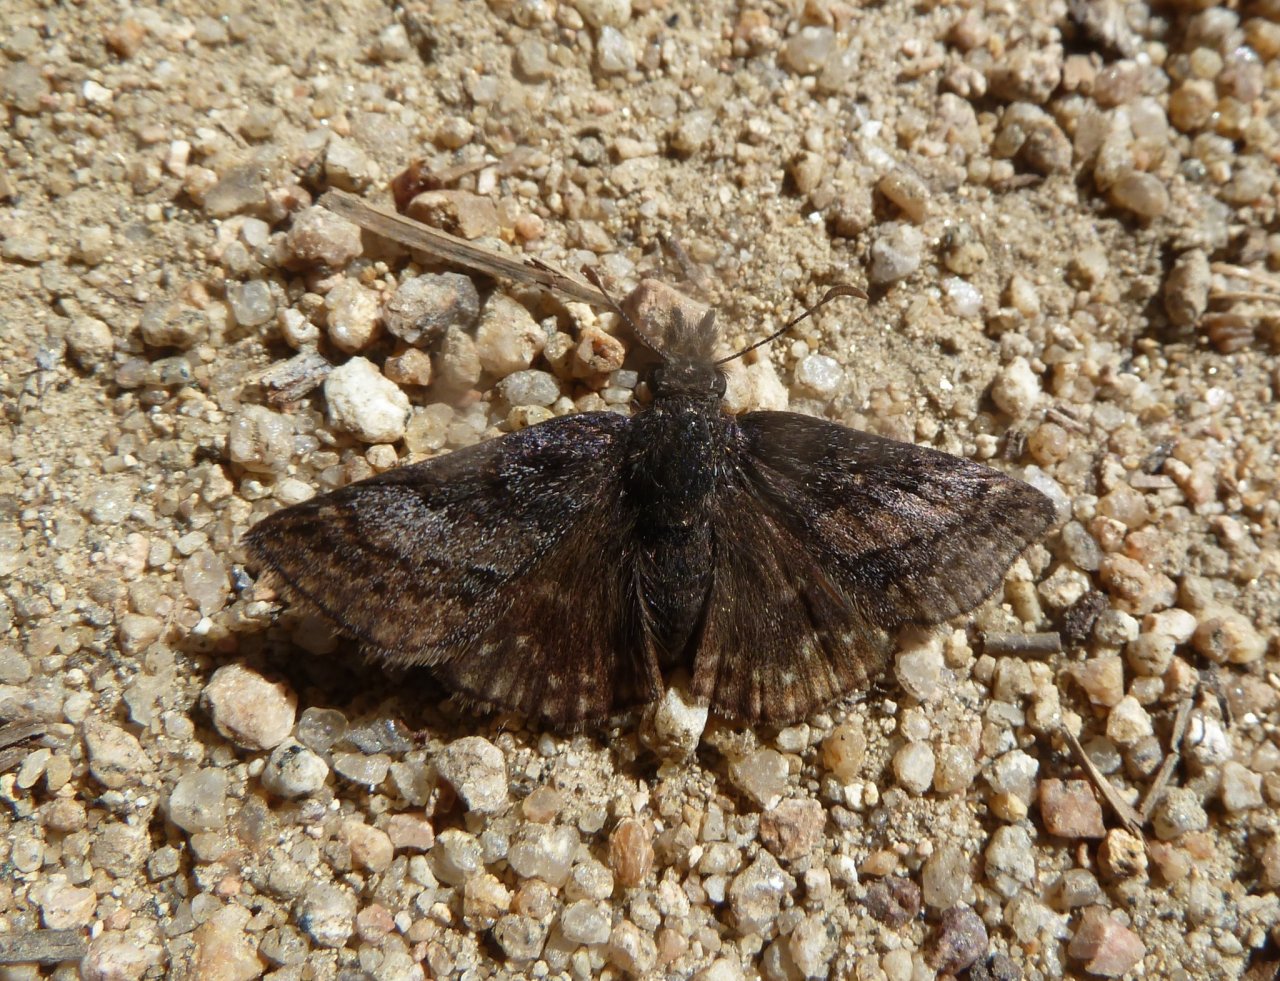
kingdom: Animalia
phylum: Arthropoda
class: Insecta
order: Lepidoptera
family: Hesperiidae
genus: Erynnis
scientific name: Erynnis
